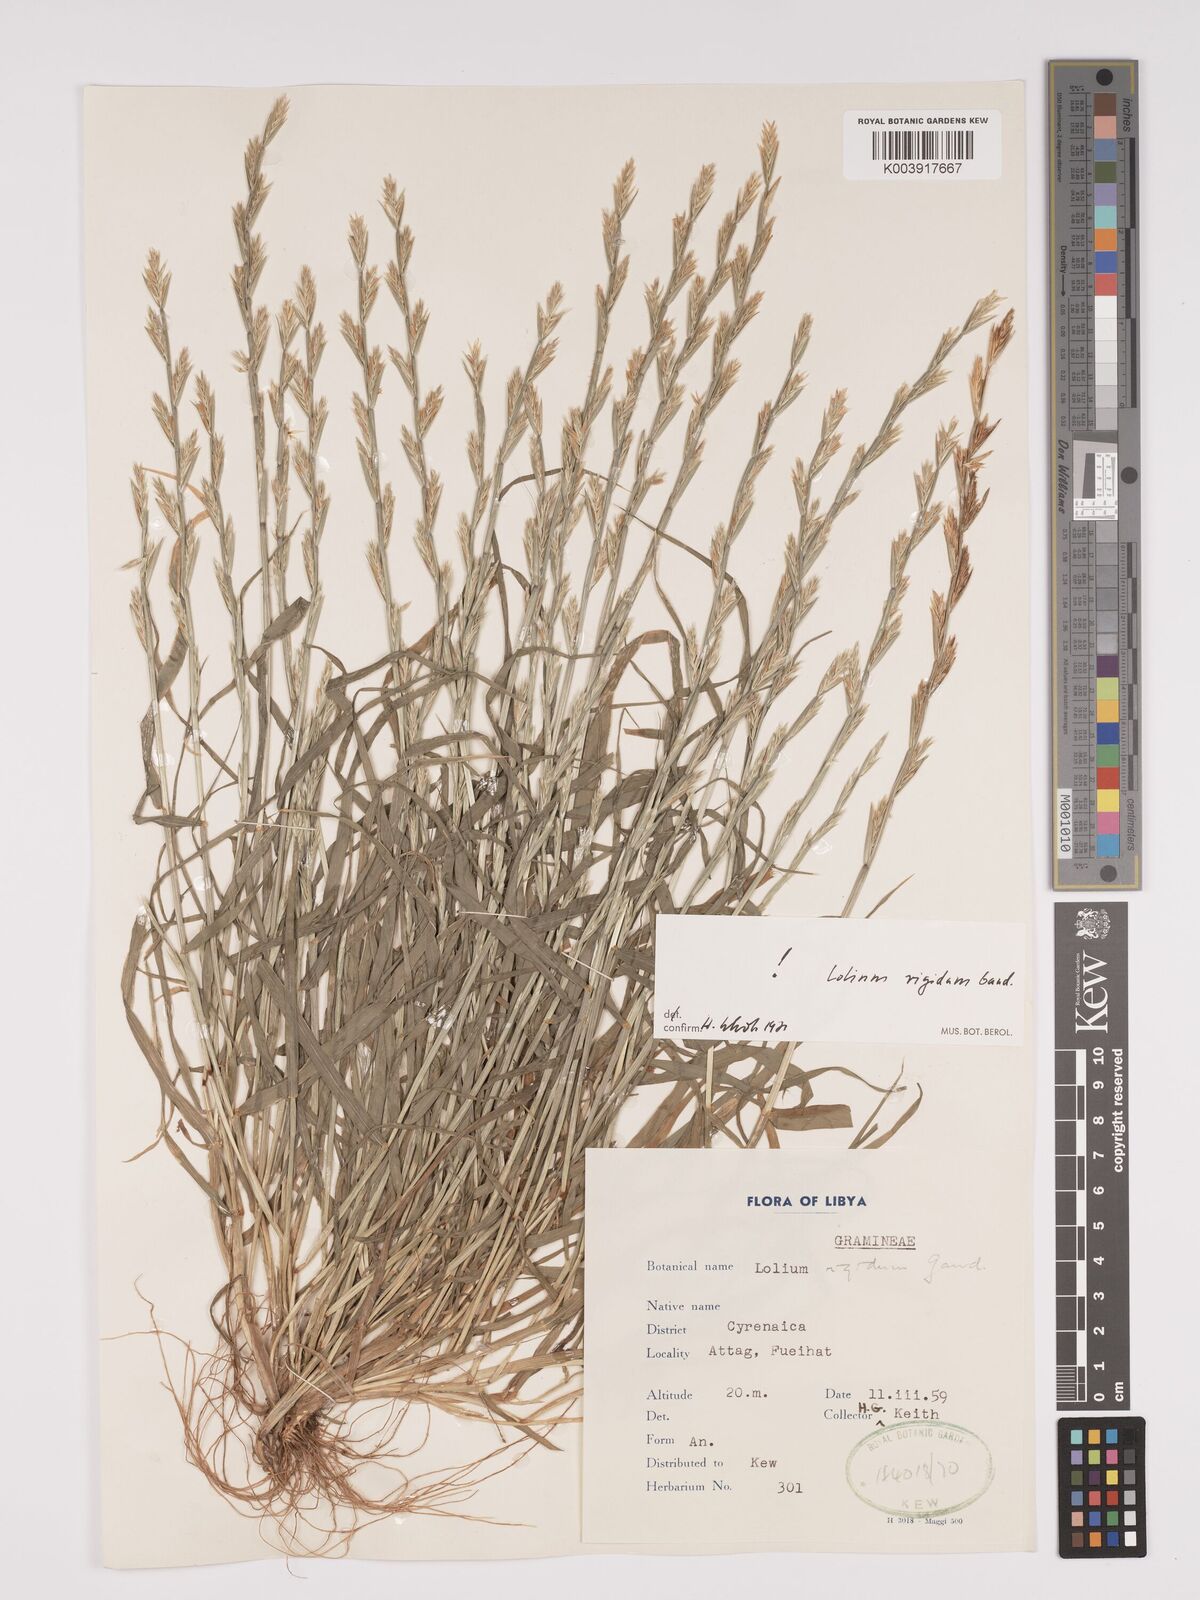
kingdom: Plantae
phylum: Tracheophyta
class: Liliopsida
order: Poales
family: Poaceae
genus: Lolium
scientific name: Lolium rigidum
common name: Wimmera ryegrass
